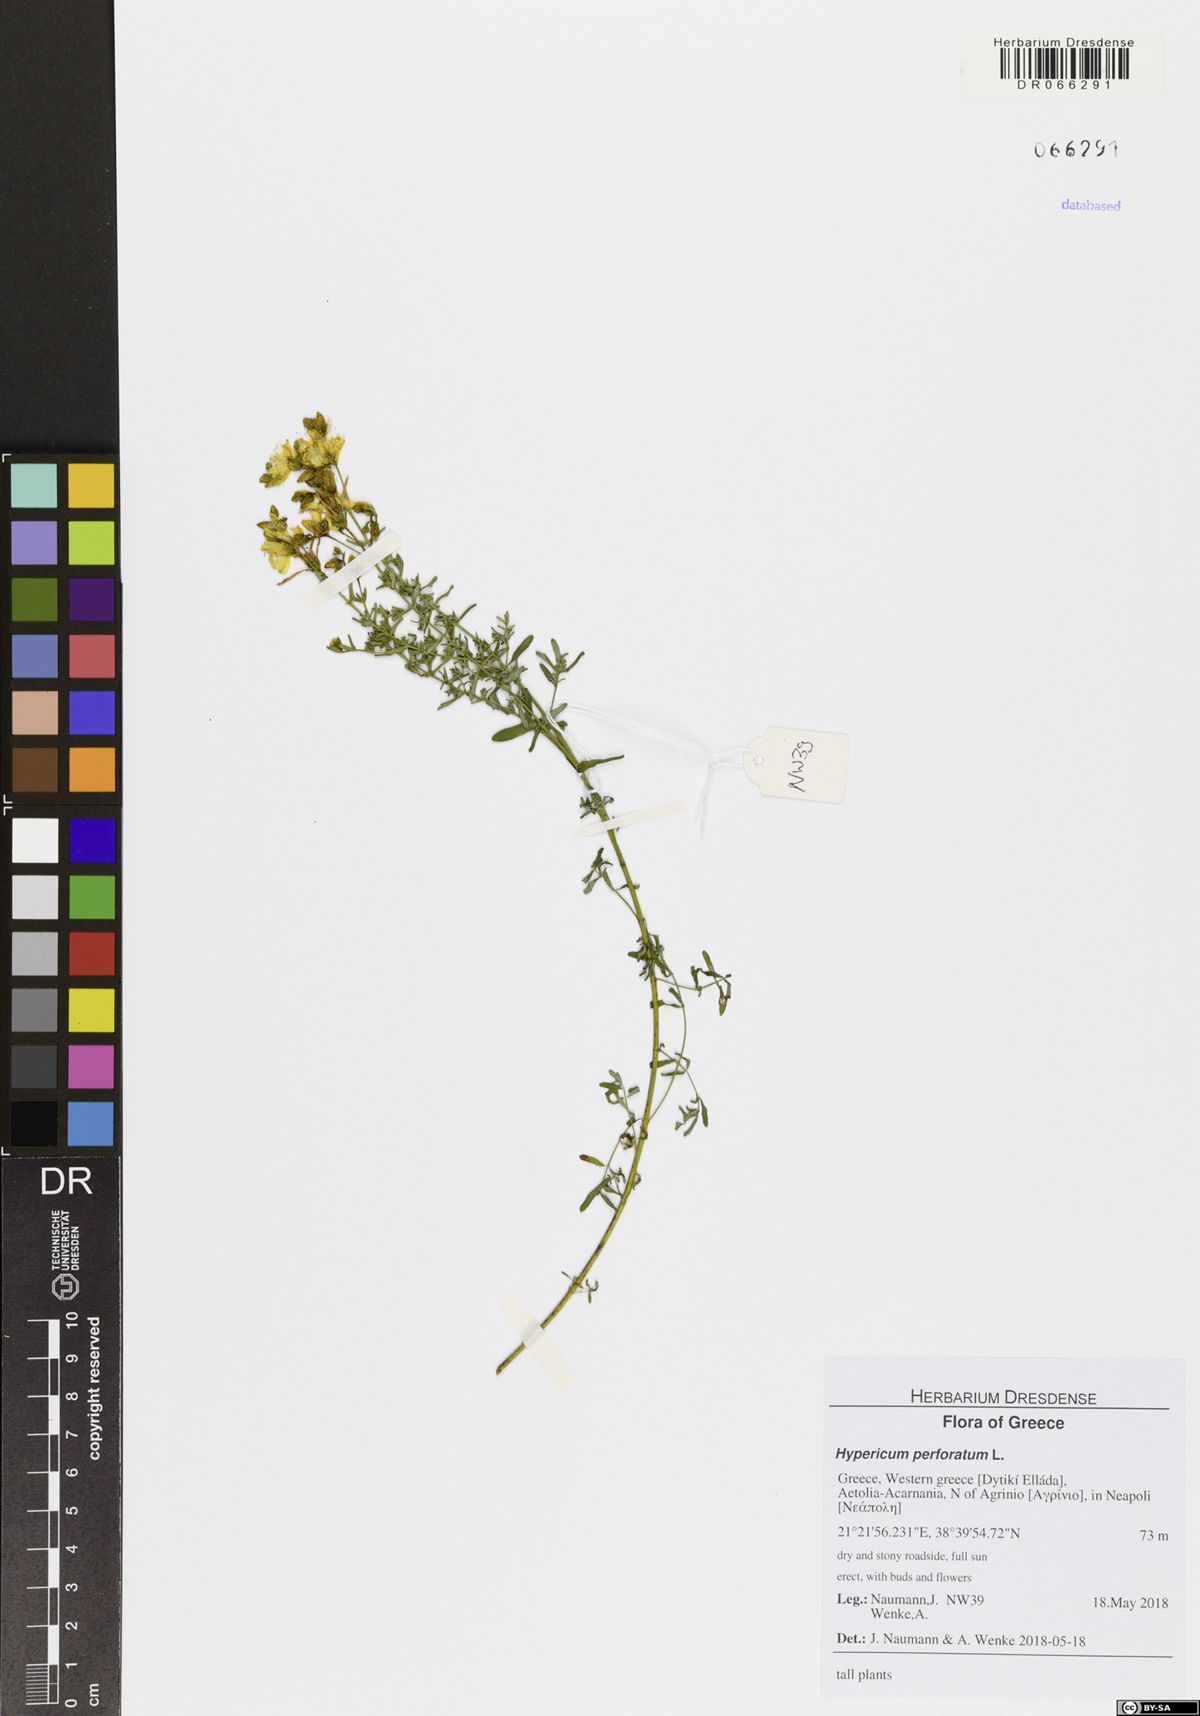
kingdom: Plantae
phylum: Tracheophyta
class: Magnoliopsida
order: Malpighiales
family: Hypericaceae
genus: Hypericum
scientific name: Hypericum perforatum
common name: Common st. johnswort
